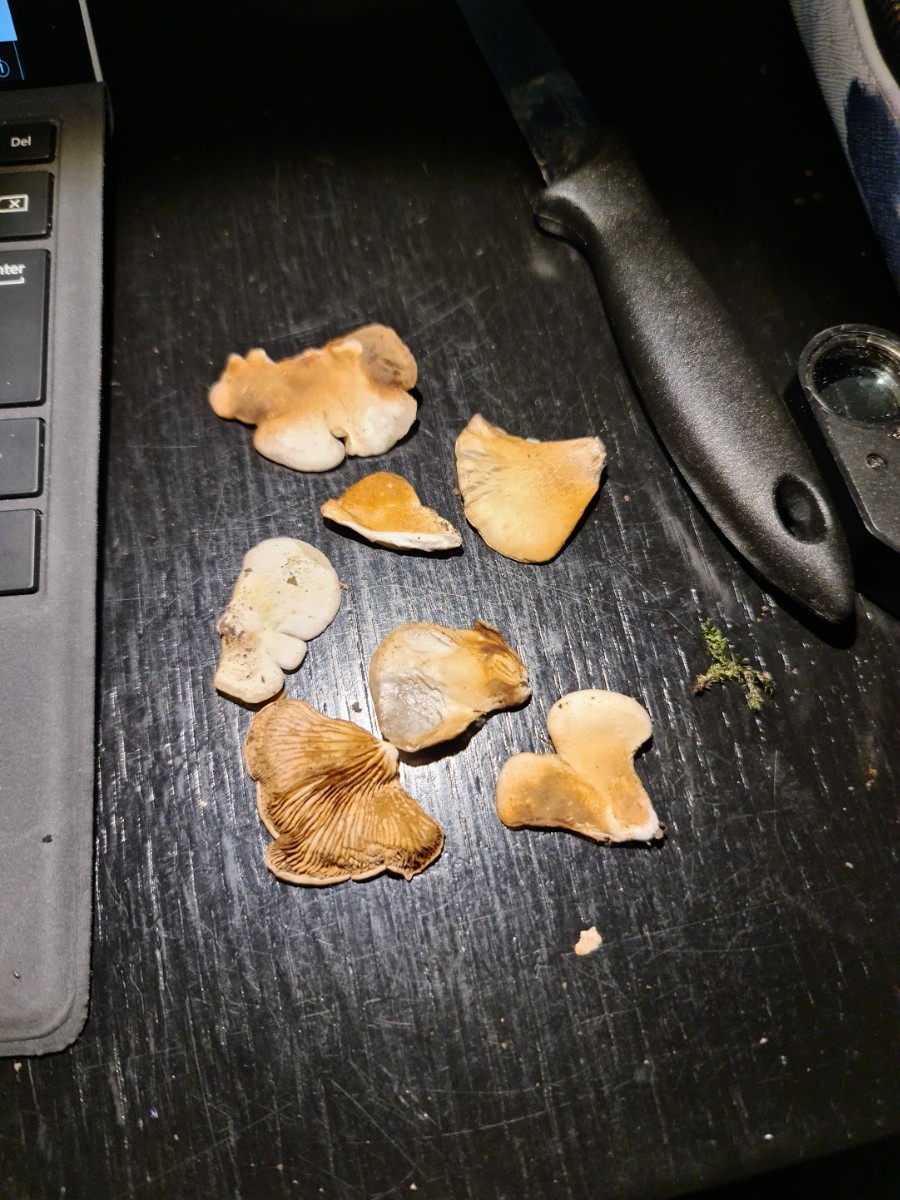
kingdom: Fungi
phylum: Basidiomycota
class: Agaricomycetes
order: Agaricales
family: Crepidotaceae
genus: Crepidotus
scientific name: Crepidotus mollis
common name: blød muslingesvamp
